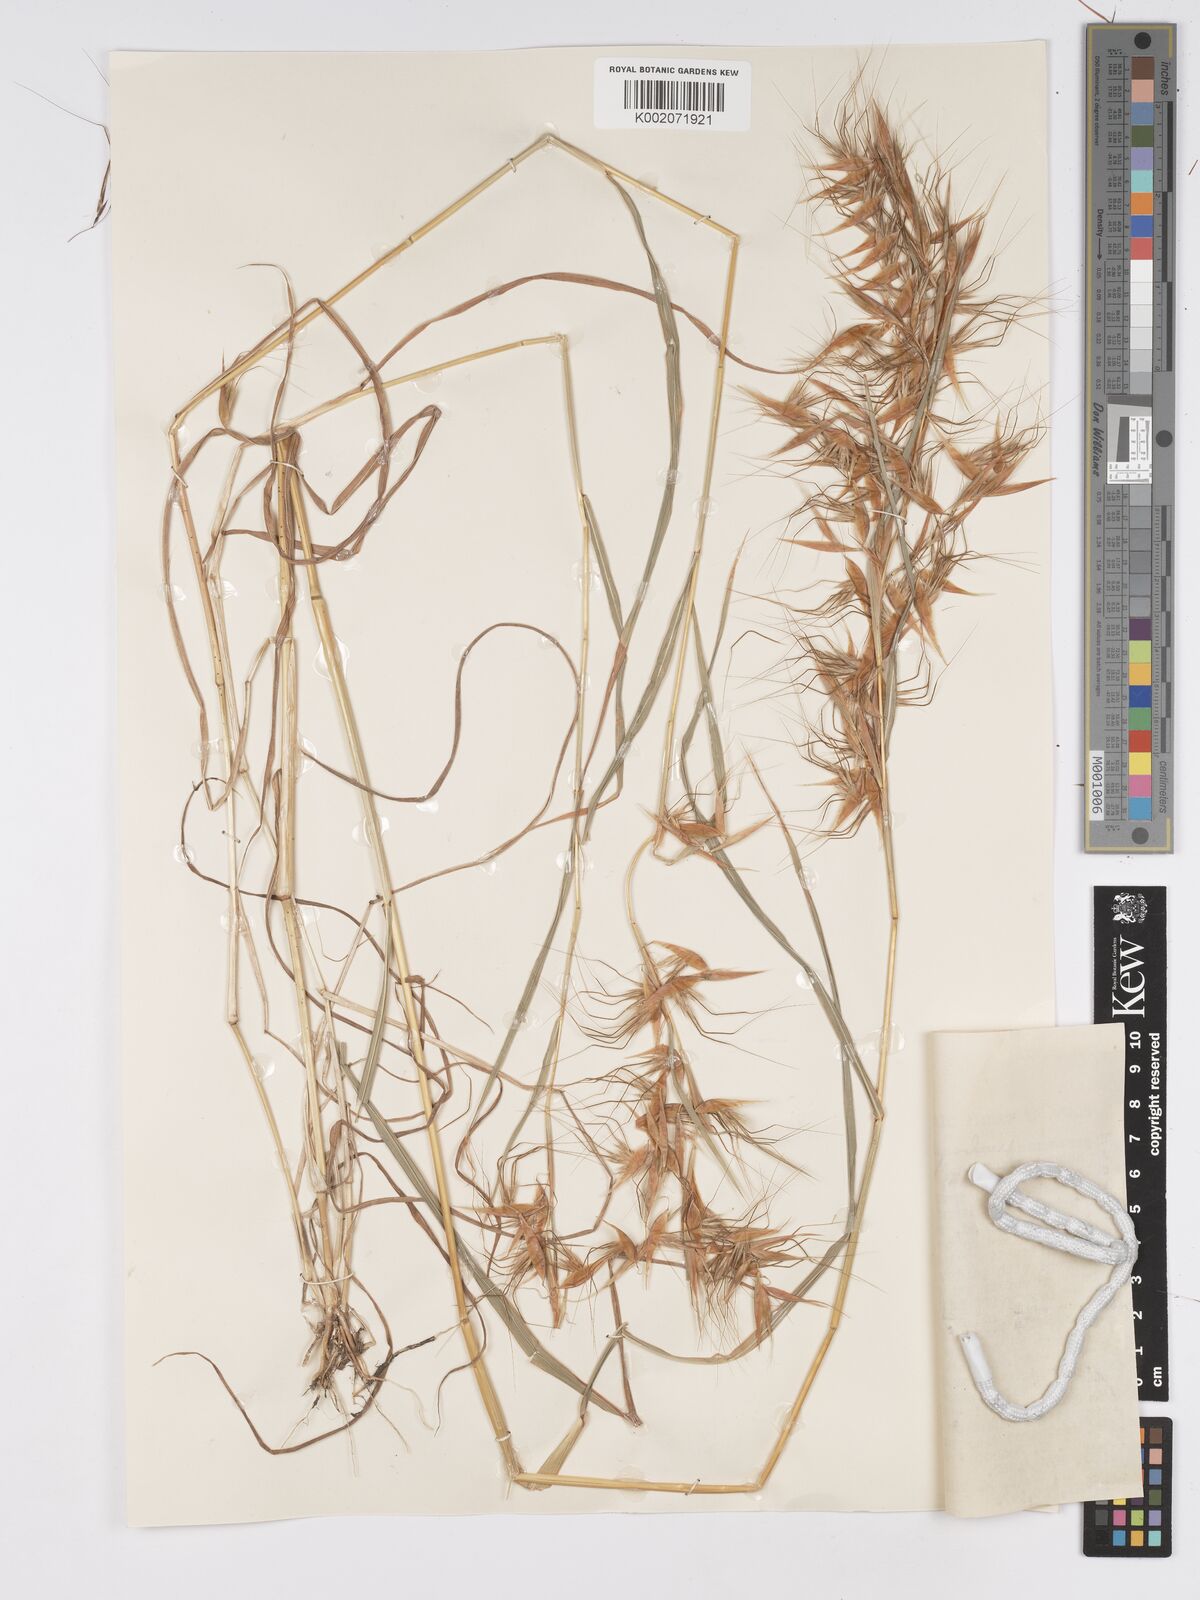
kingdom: Plantae
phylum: Tracheophyta
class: Liliopsida
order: Poales
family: Poaceae
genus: Hyparrhenia
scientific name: Hyparrhenia anthistirioides
